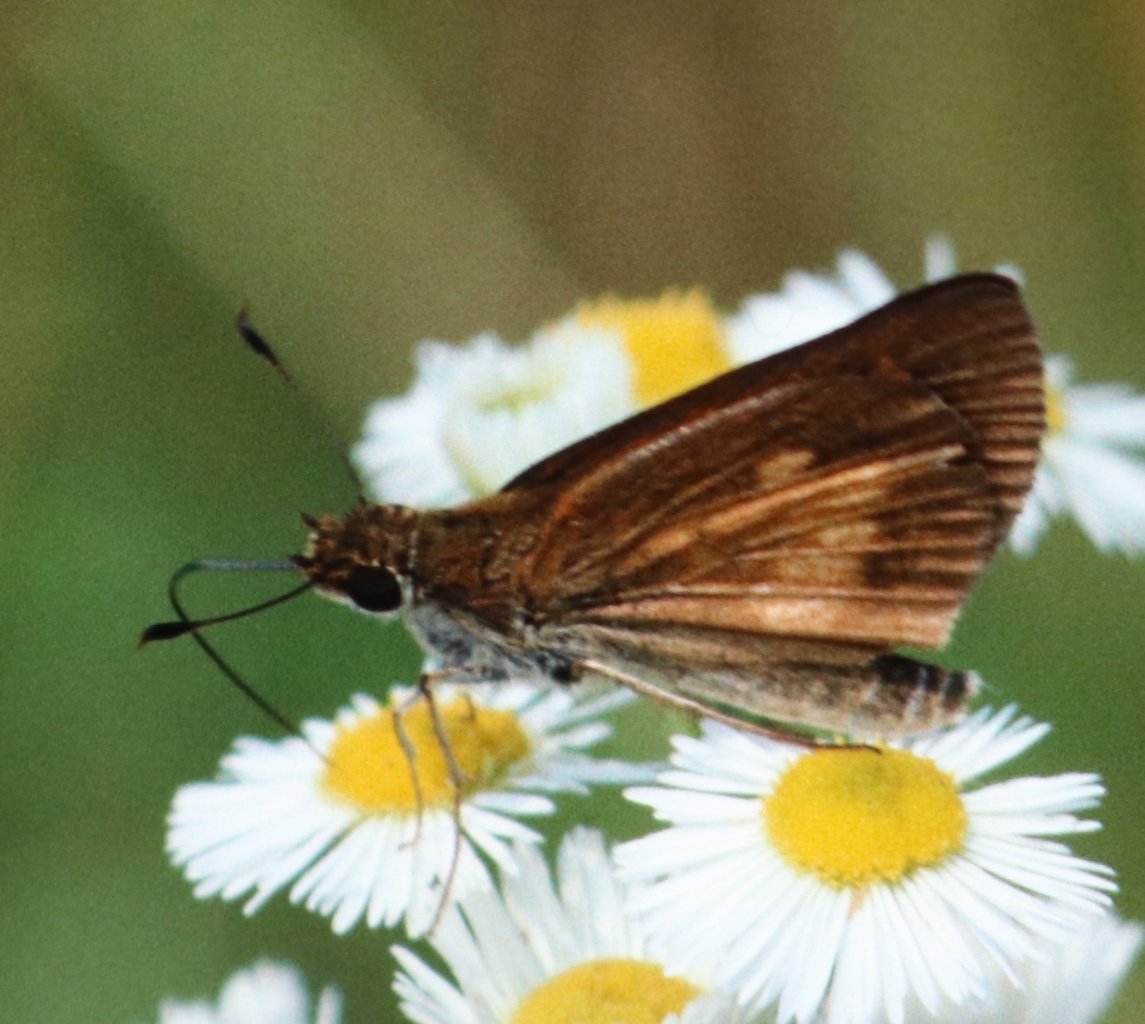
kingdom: Animalia
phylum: Arthropoda
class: Insecta
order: Lepidoptera
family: Hesperiidae
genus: Poanes
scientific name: Poanes massasoit
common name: Mulberry Wing
